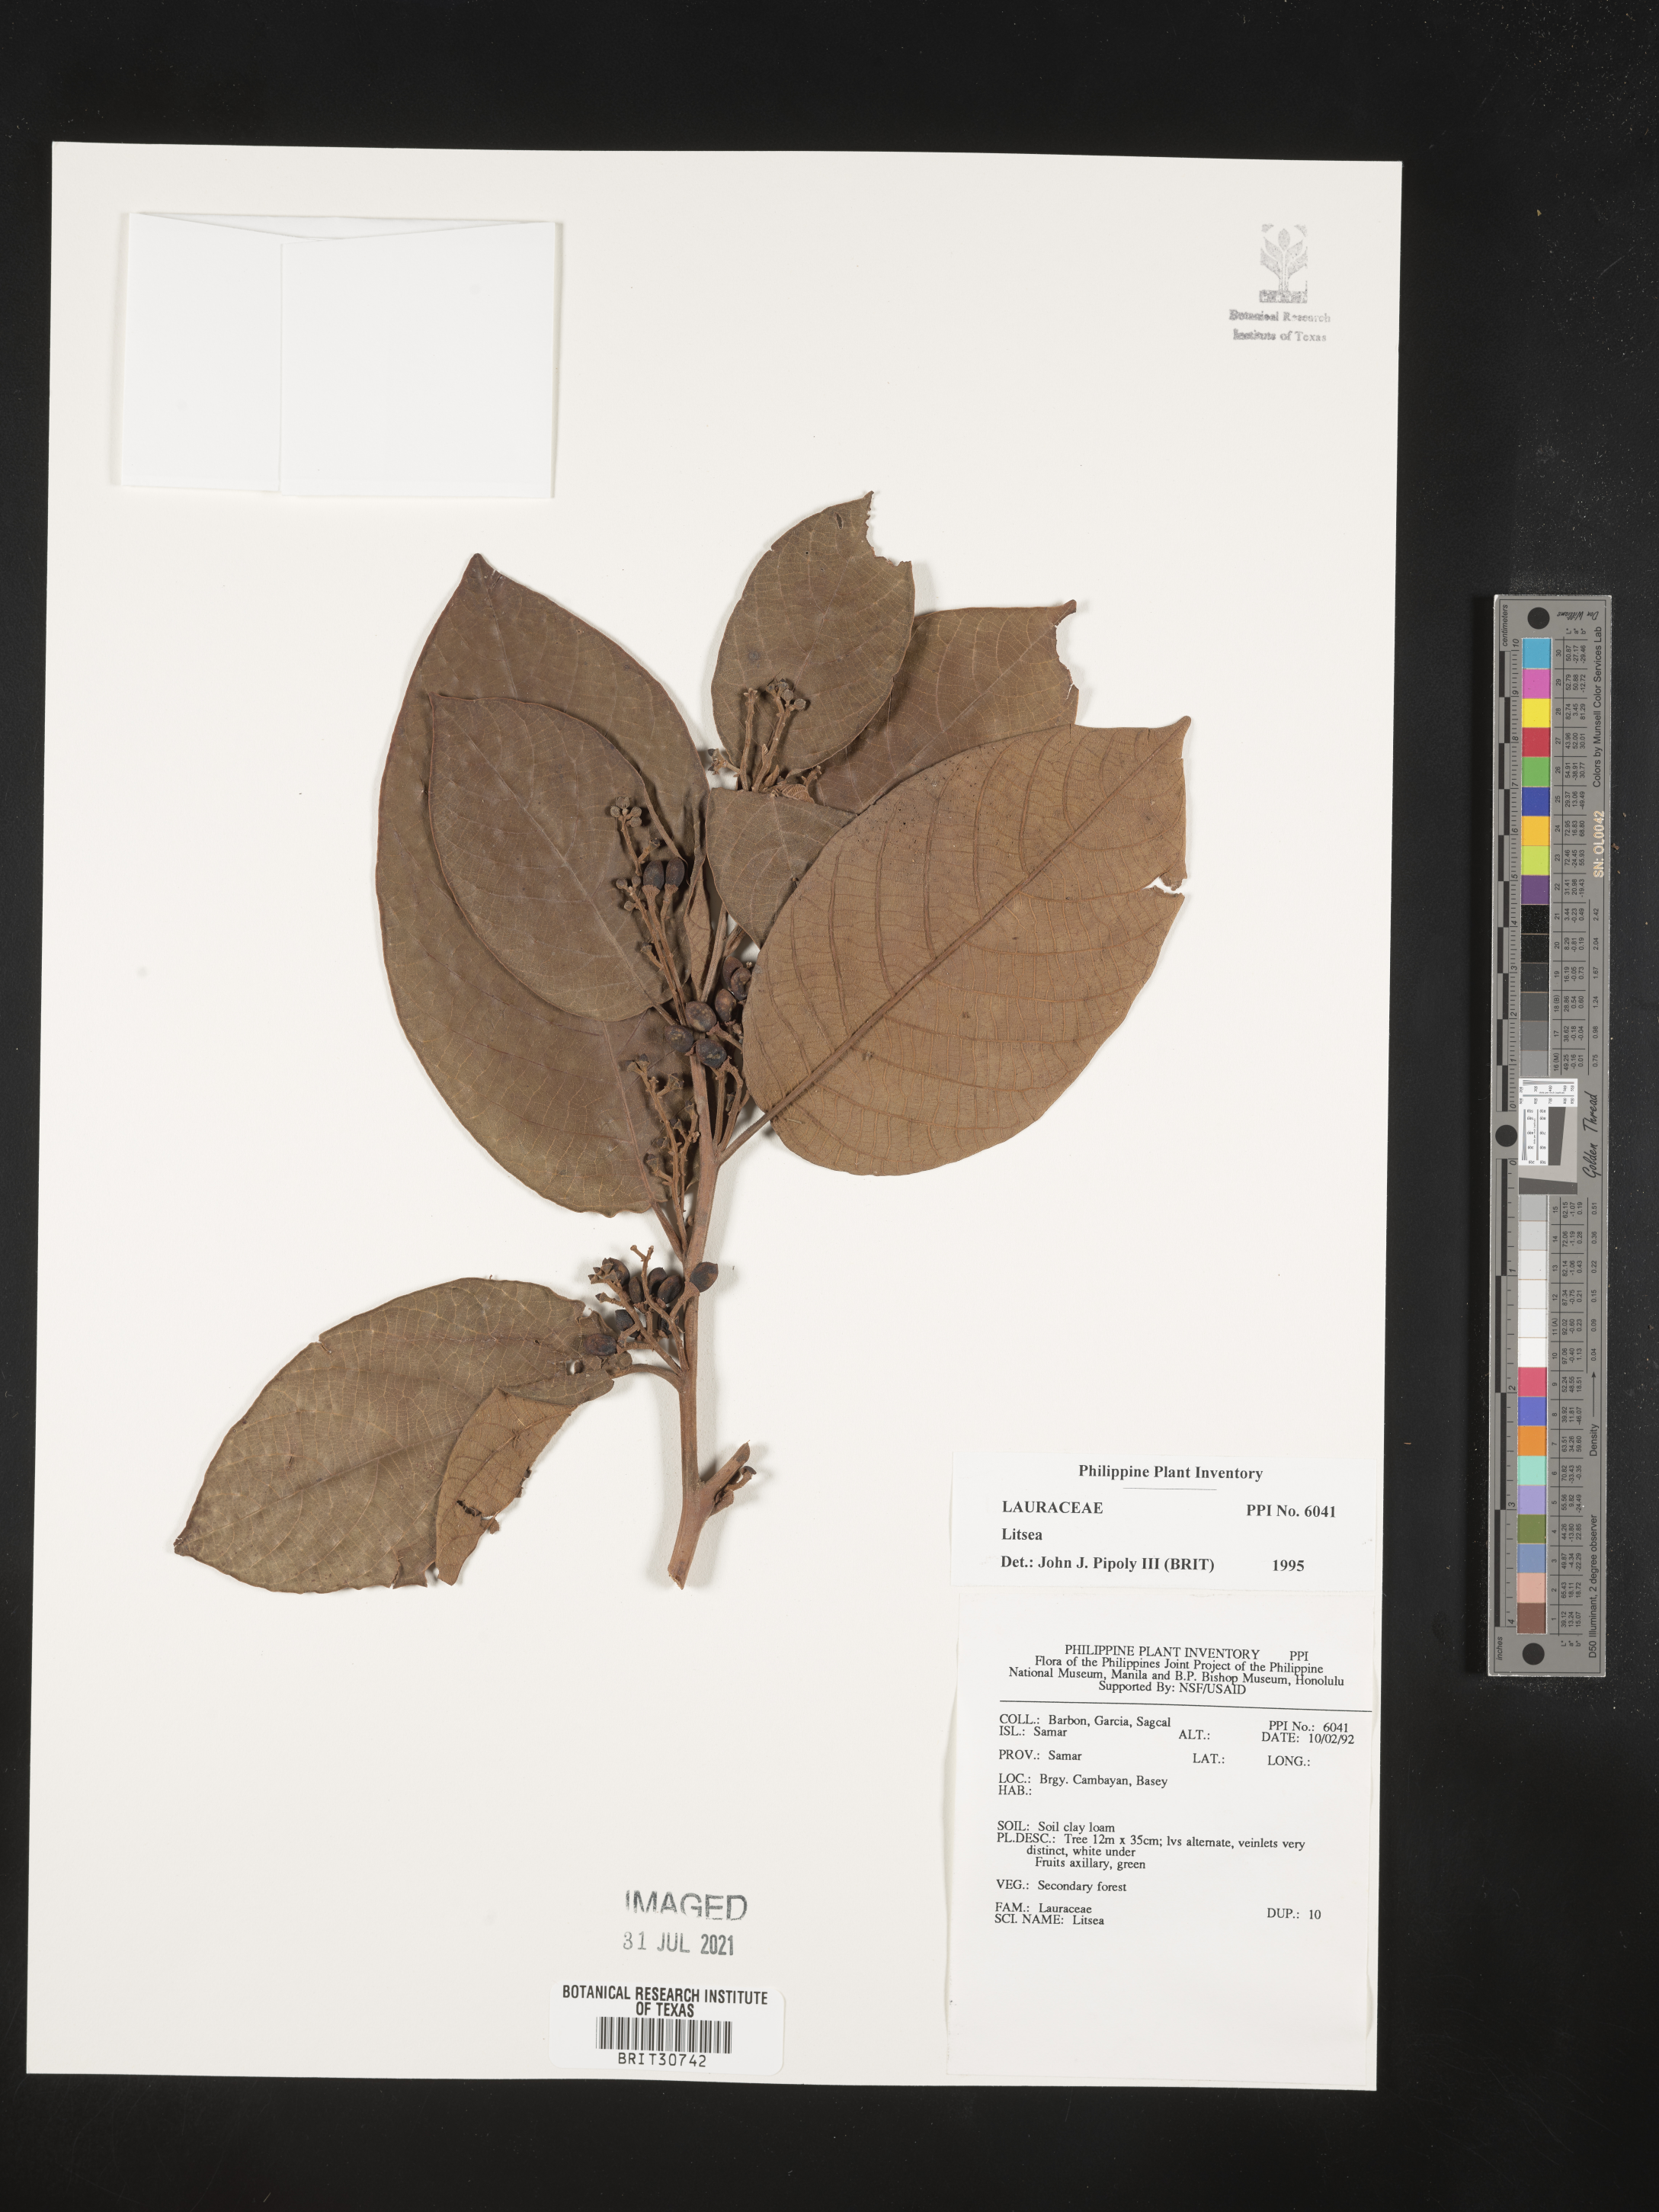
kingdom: Plantae
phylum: Tracheophyta
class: Magnoliopsida
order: Laurales
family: Lauraceae
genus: Litsea
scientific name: Litsea
